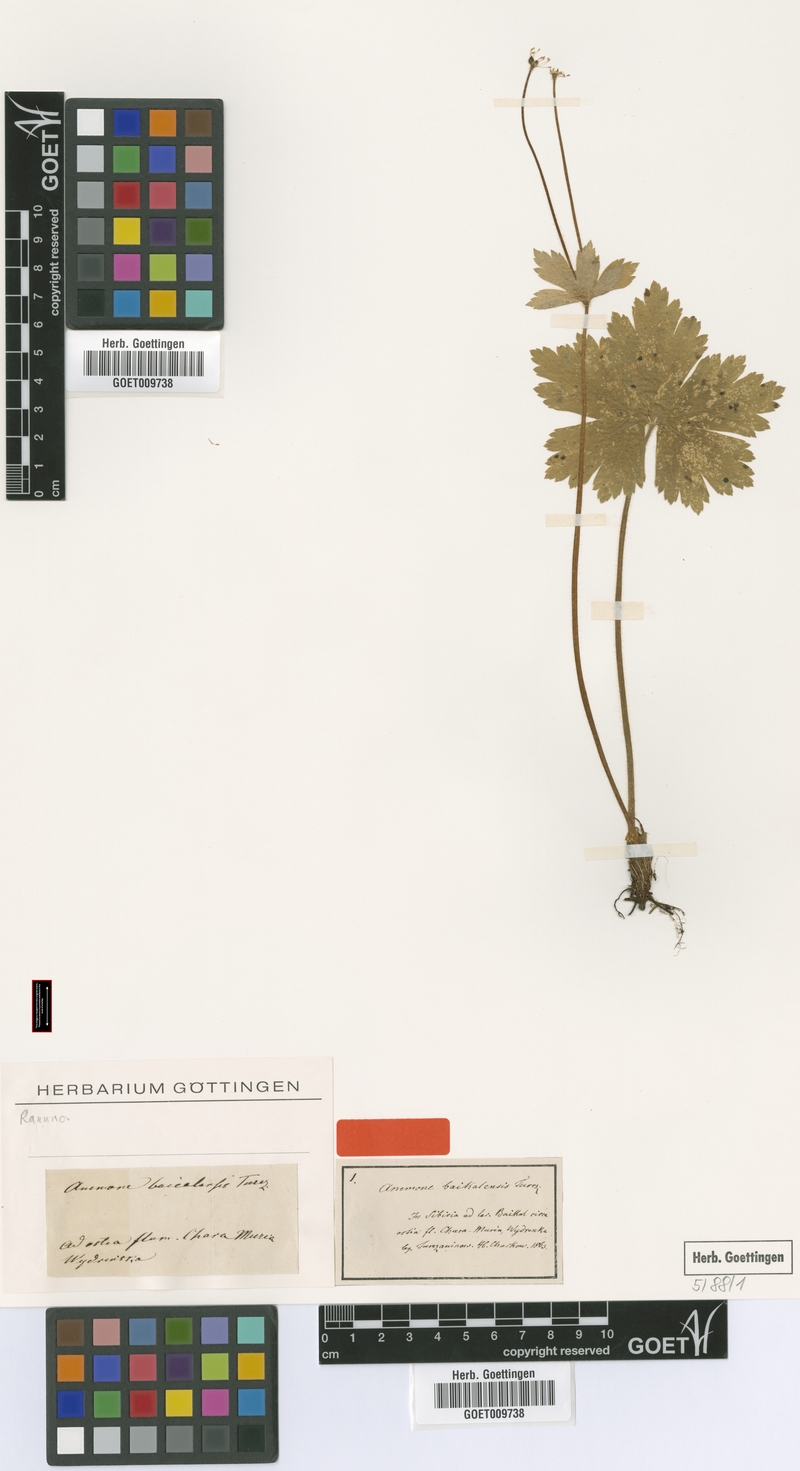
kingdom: Plantae
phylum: Tracheophyta
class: Magnoliopsida
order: Ranunculales
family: Ranunculaceae
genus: Anemonastrum
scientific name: Anemonastrum baicalense
